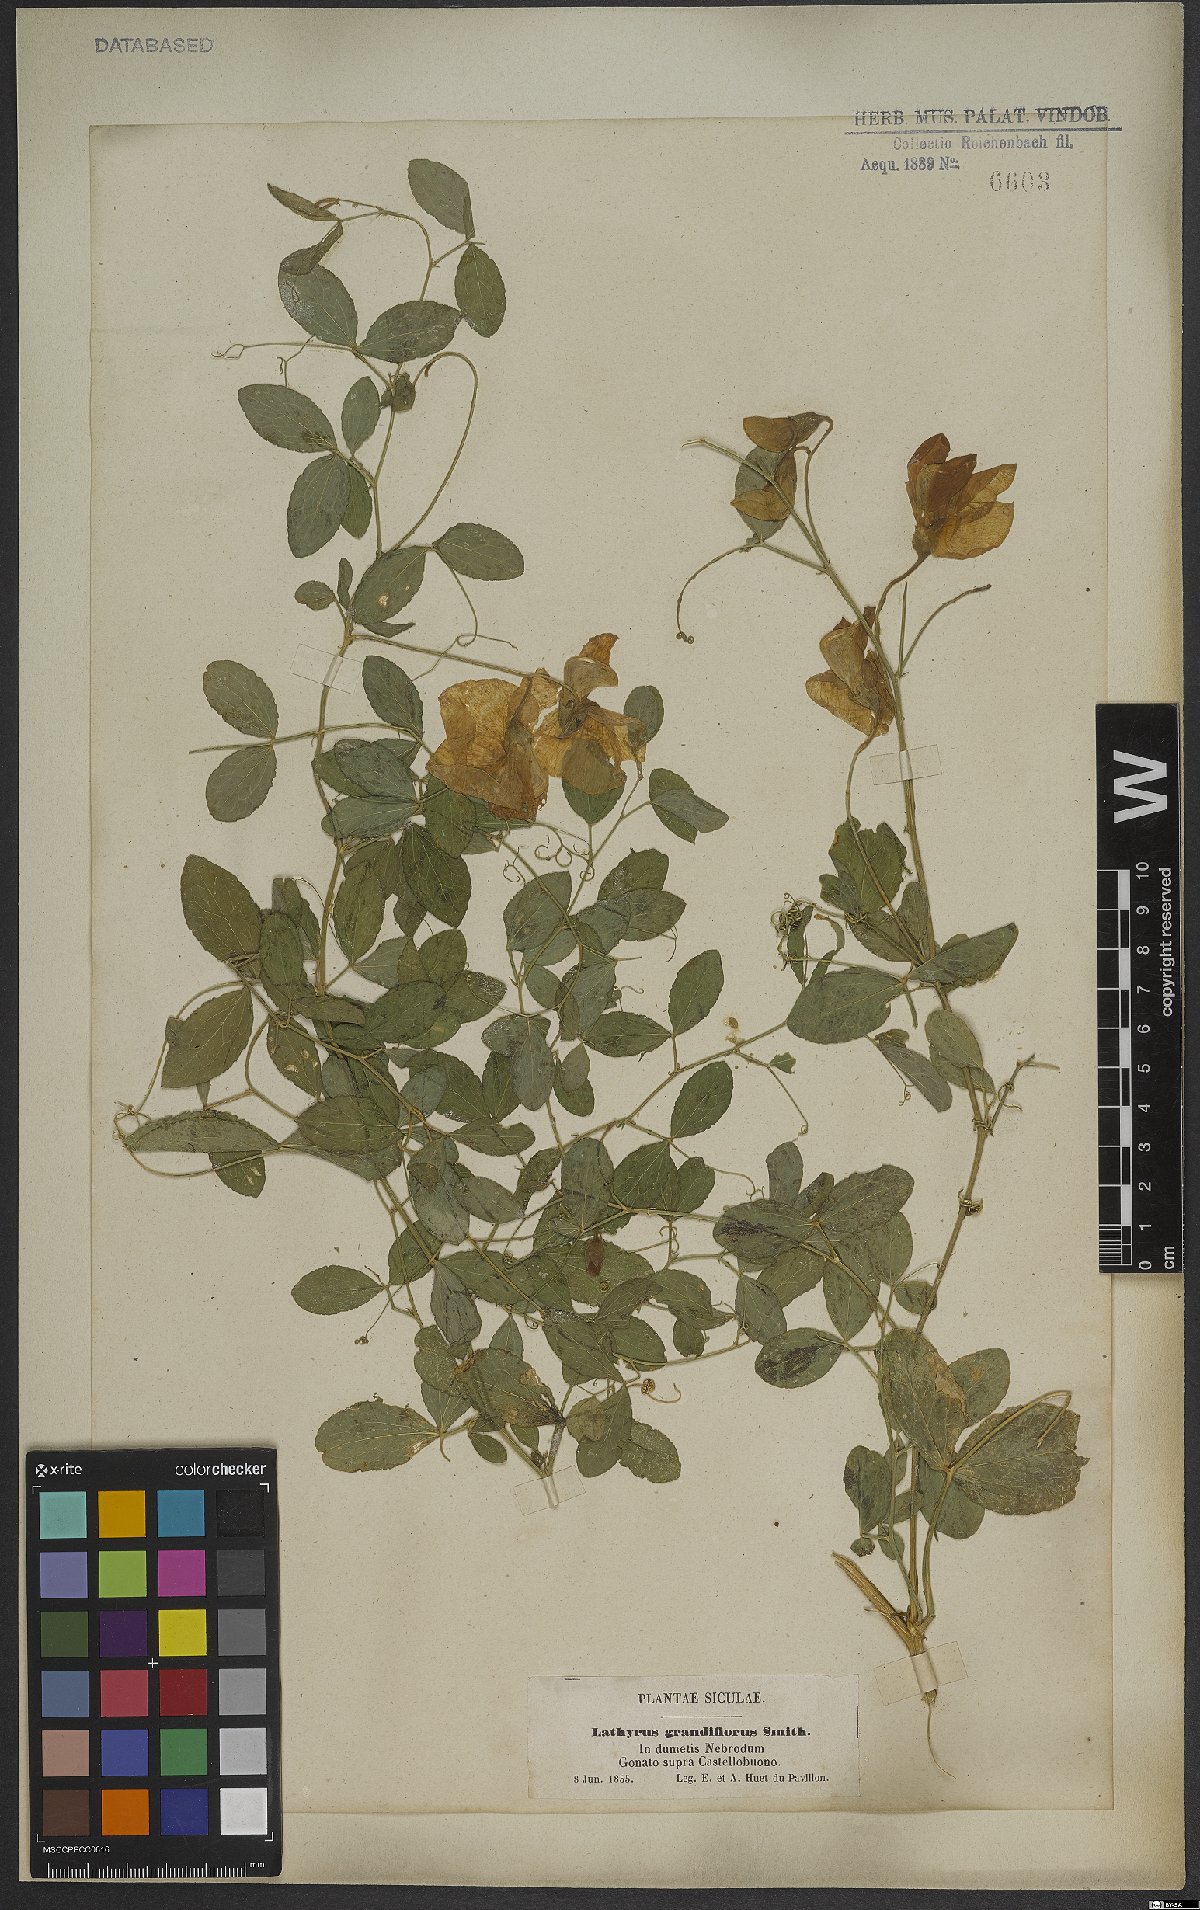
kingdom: Plantae
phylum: Tracheophyta
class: Magnoliopsida
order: Fabales
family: Fabaceae
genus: Lathyrus
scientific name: Lathyrus grandiflorus
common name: Two-flowered everlasting-pea
